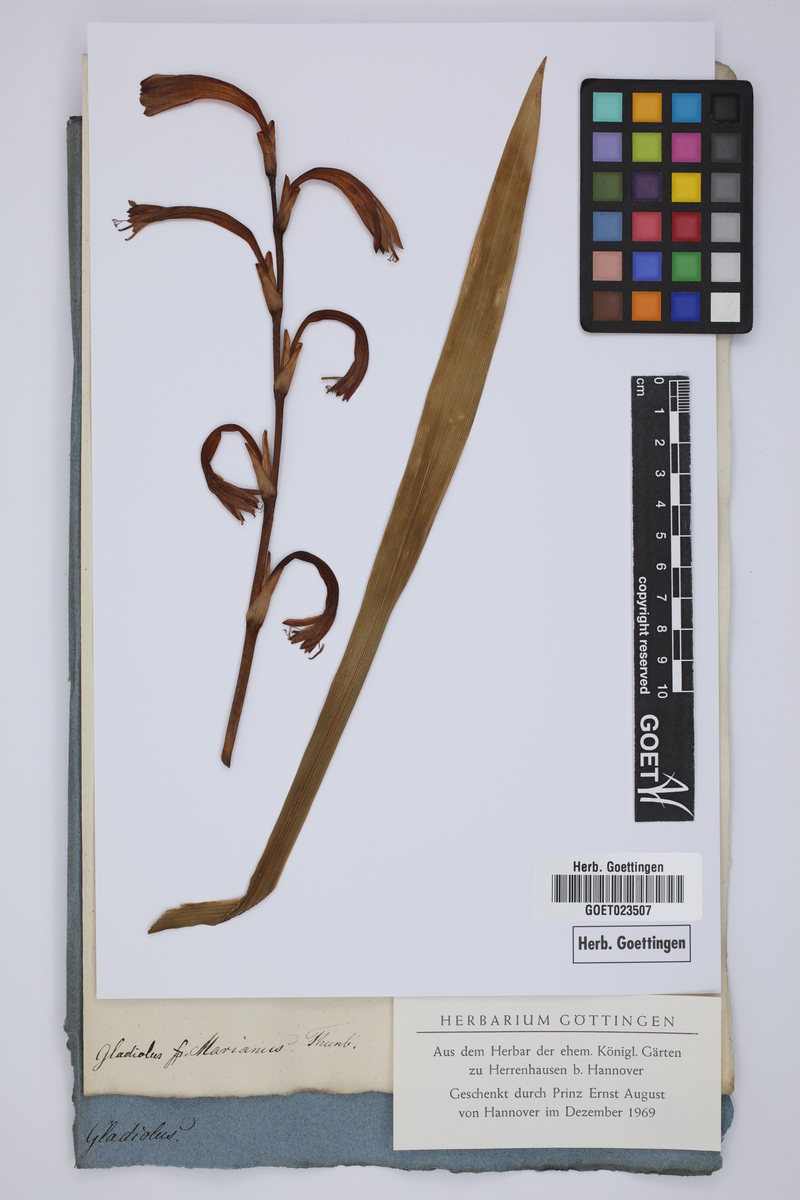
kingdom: Plantae
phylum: Tracheophyta
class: Liliopsida
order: Asparagales
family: Iridaceae
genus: Watsonia
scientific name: Watsonia meriana
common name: Bulbil bugle-lily
